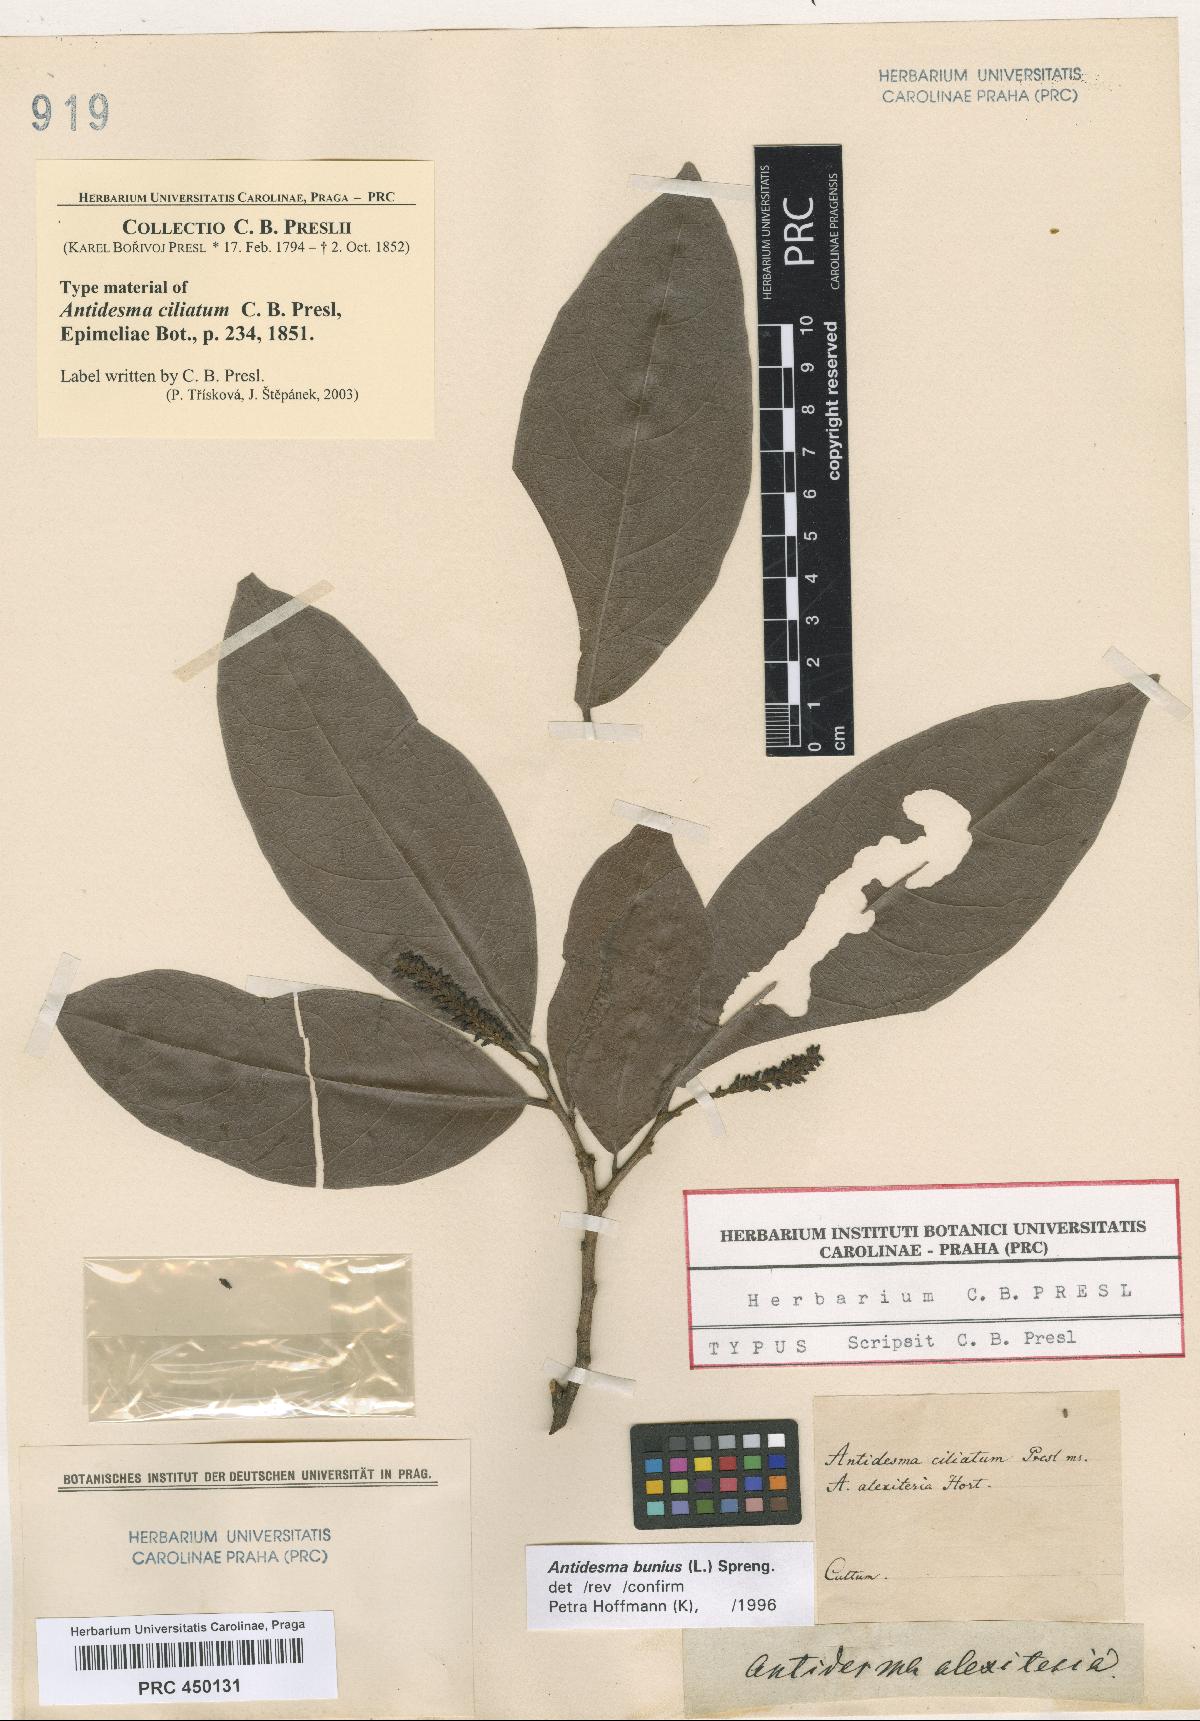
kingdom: Plantae
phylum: Tracheophyta
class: Magnoliopsida
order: Malpighiales
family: Phyllanthaceae
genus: Antidesma
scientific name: Antidesma bunius
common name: Chinese-laurel
